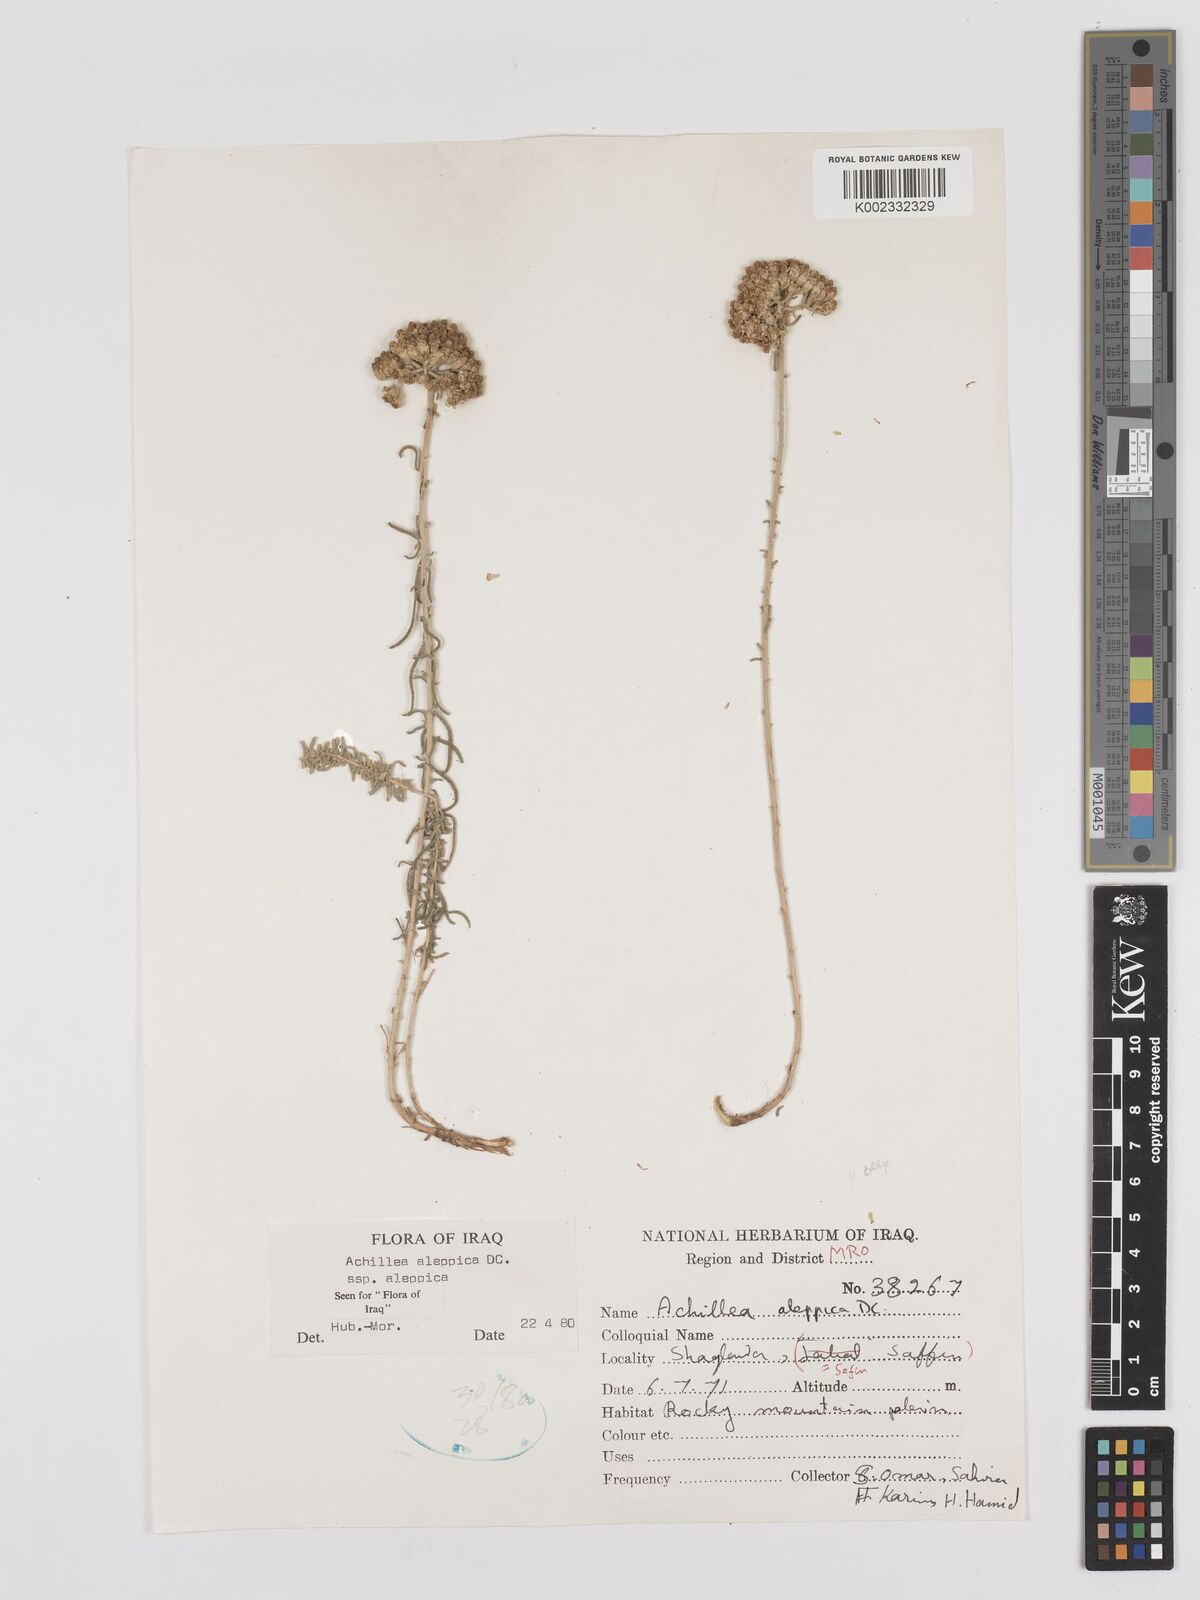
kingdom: Plantae
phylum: Tracheophyta
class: Magnoliopsida
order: Asterales
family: Asteraceae
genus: Achillea
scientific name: Achillea aleppica
